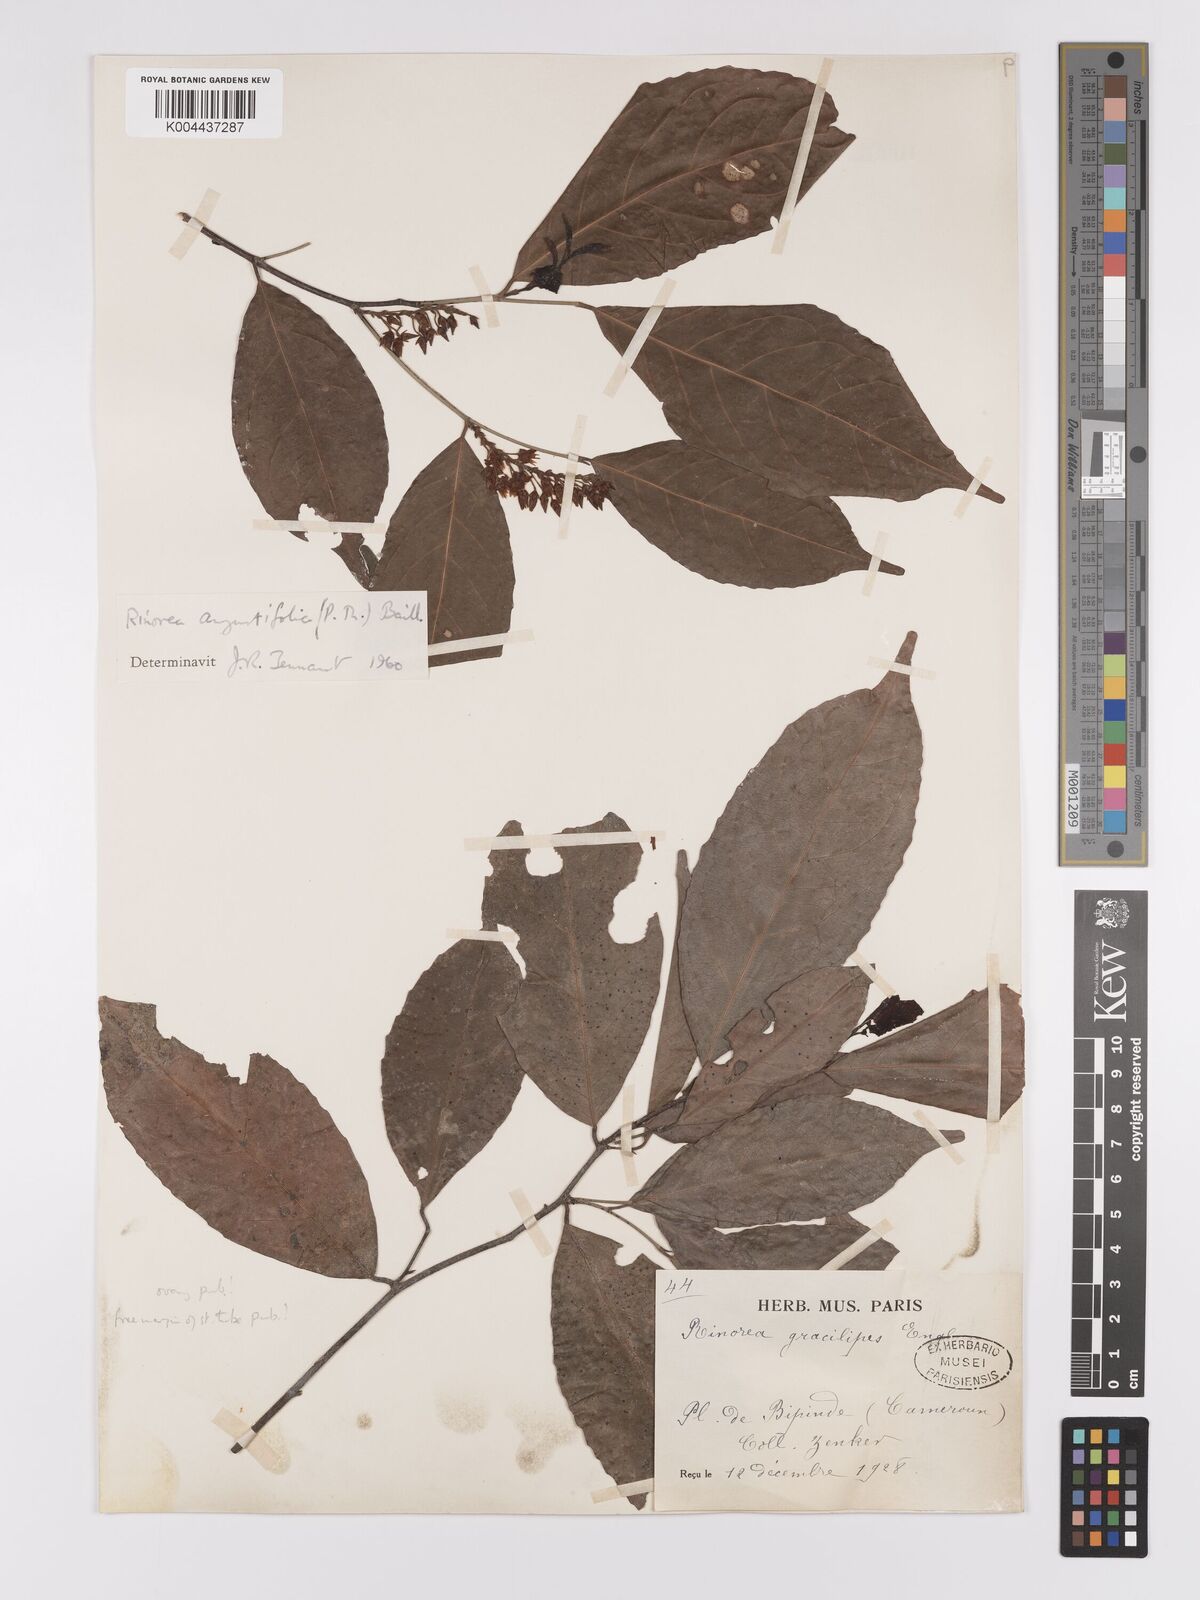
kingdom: Plantae
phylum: Tracheophyta
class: Magnoliopsida
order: Malpighiales
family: Violaceae
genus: Rinorea
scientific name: Rinorea angustifolia
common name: White violet-bush
